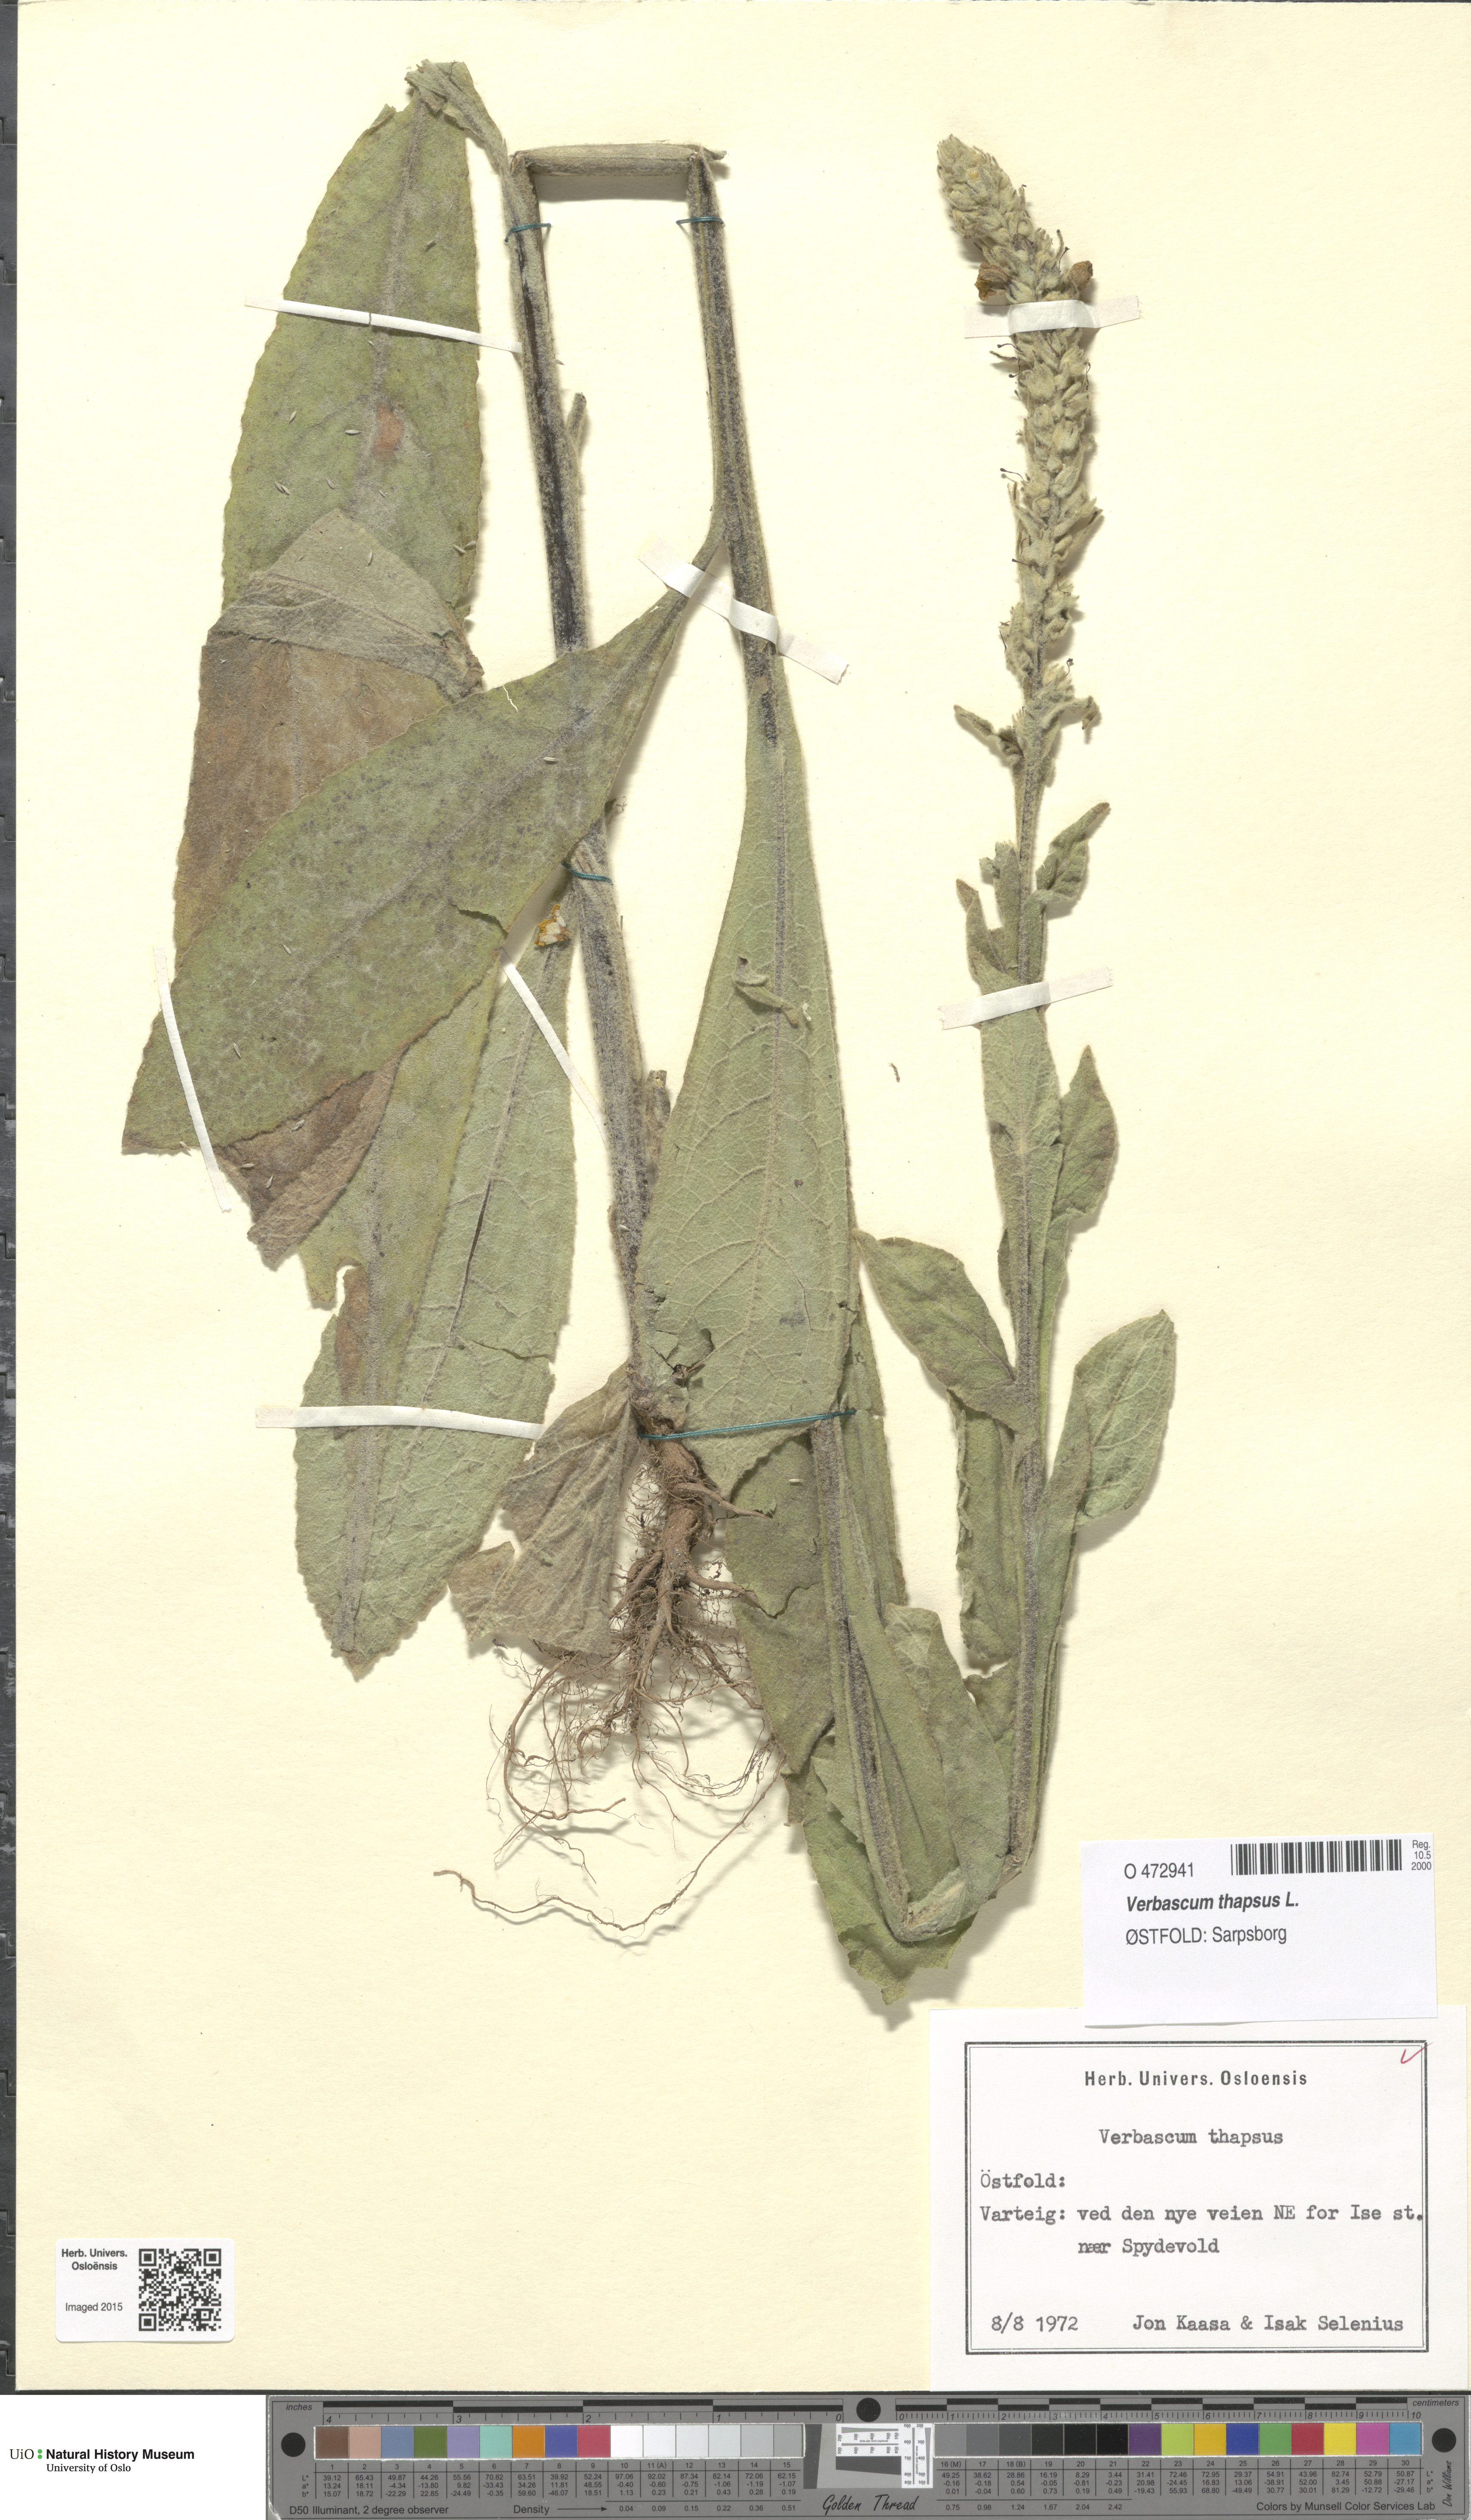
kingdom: Plantae
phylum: Tracheophyta
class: Magnoliopsida
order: Lamiales
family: Scrophulariaceae
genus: Verbascum
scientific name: Verbascum thapsus
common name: Common mullein
